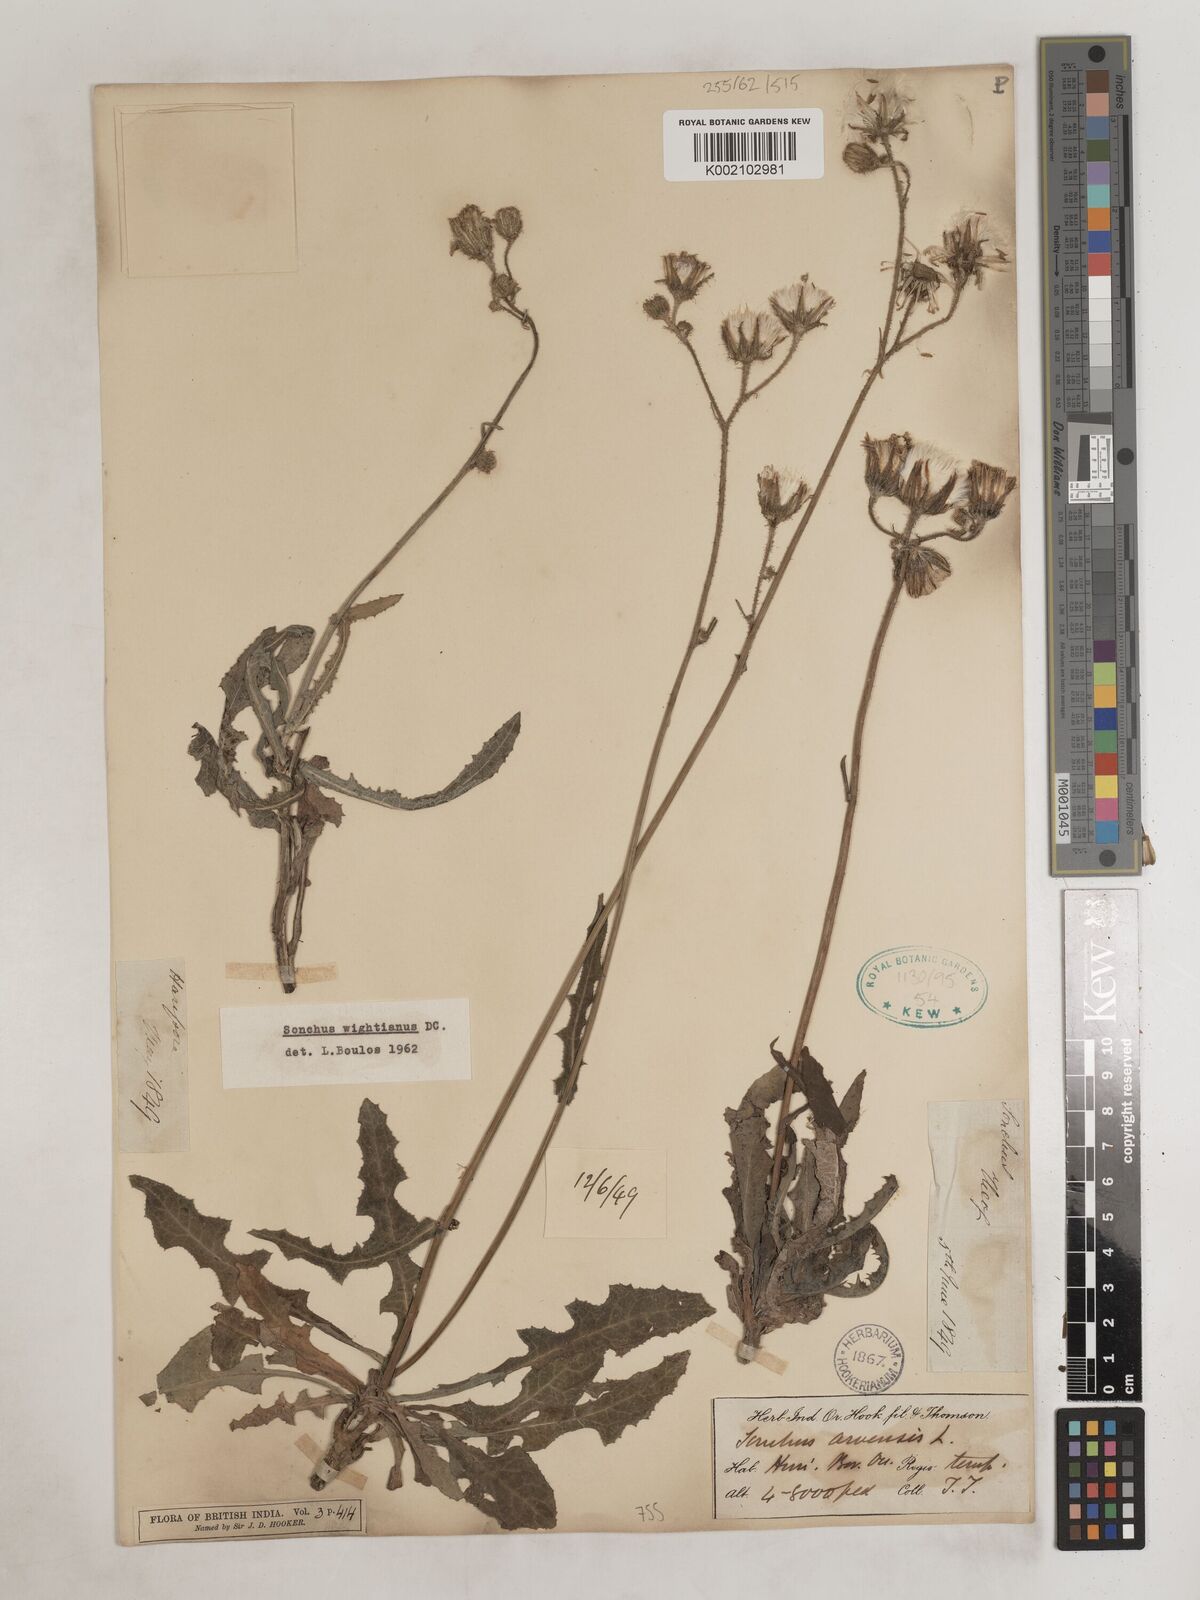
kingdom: Plantae
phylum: Tracheophyta
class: Magnoliopsida
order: Asterales
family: Asteraceae
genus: Sonchus
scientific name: Sonchus wightianus
